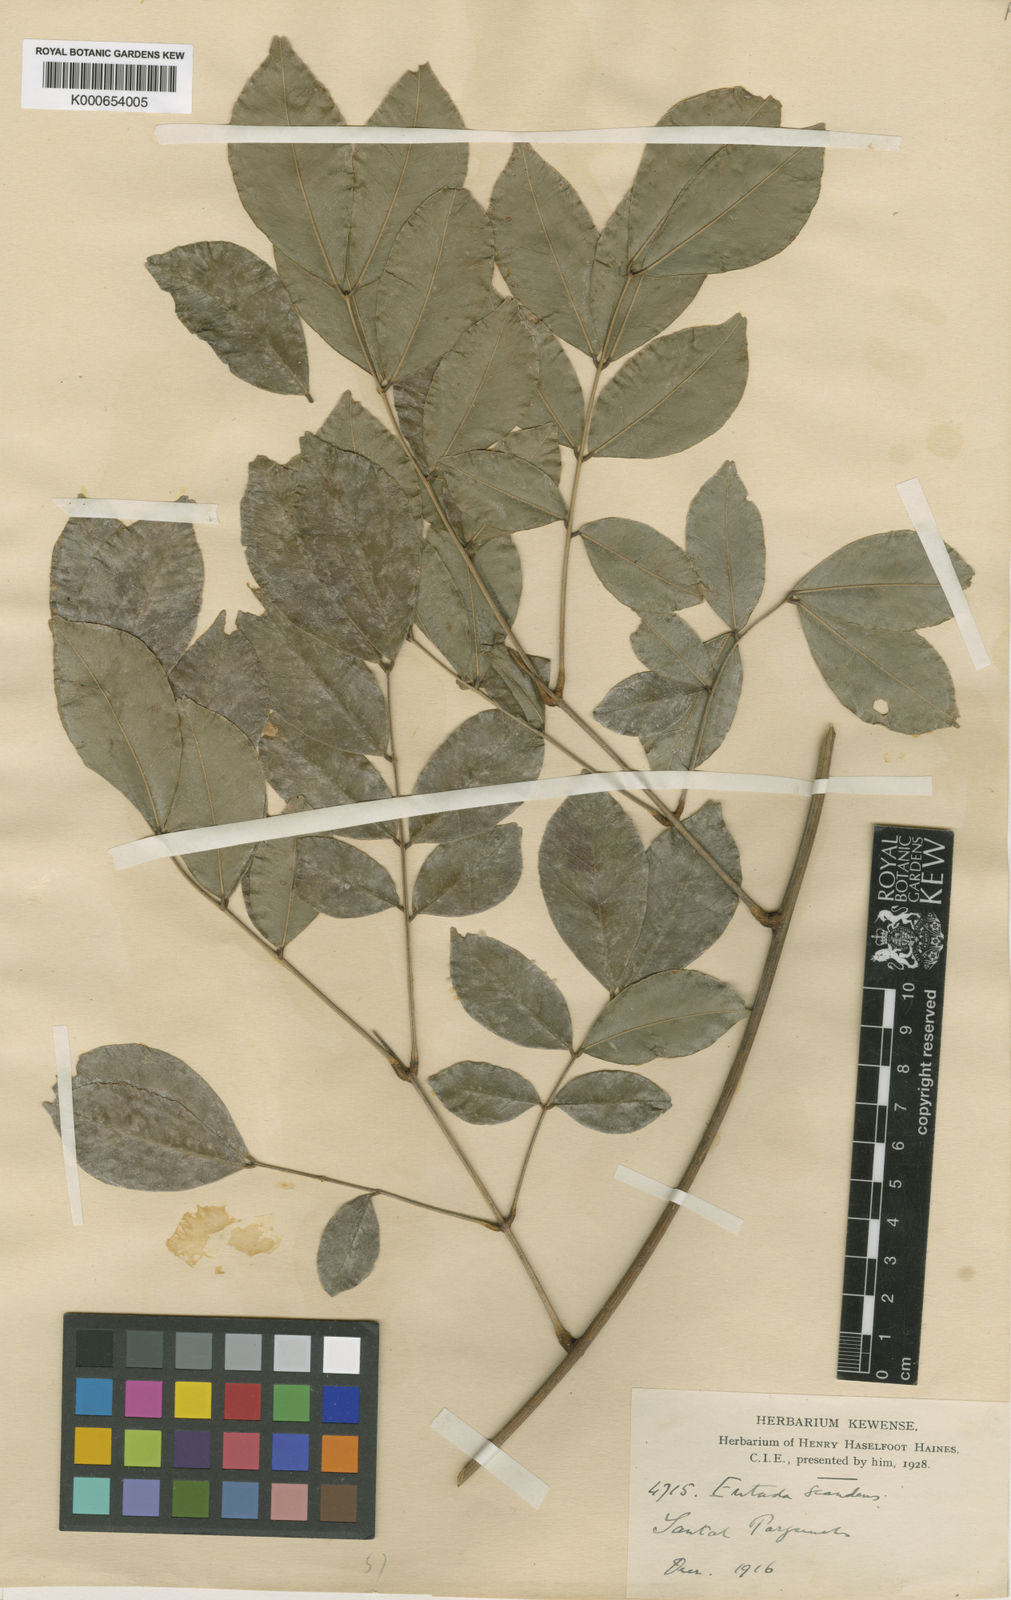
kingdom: Plantae
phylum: Tracheophyta
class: Magnoliopsida
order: Fabales
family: Fabaceae
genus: Entada
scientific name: Entada phaseoloides
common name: Matchbox-bean
